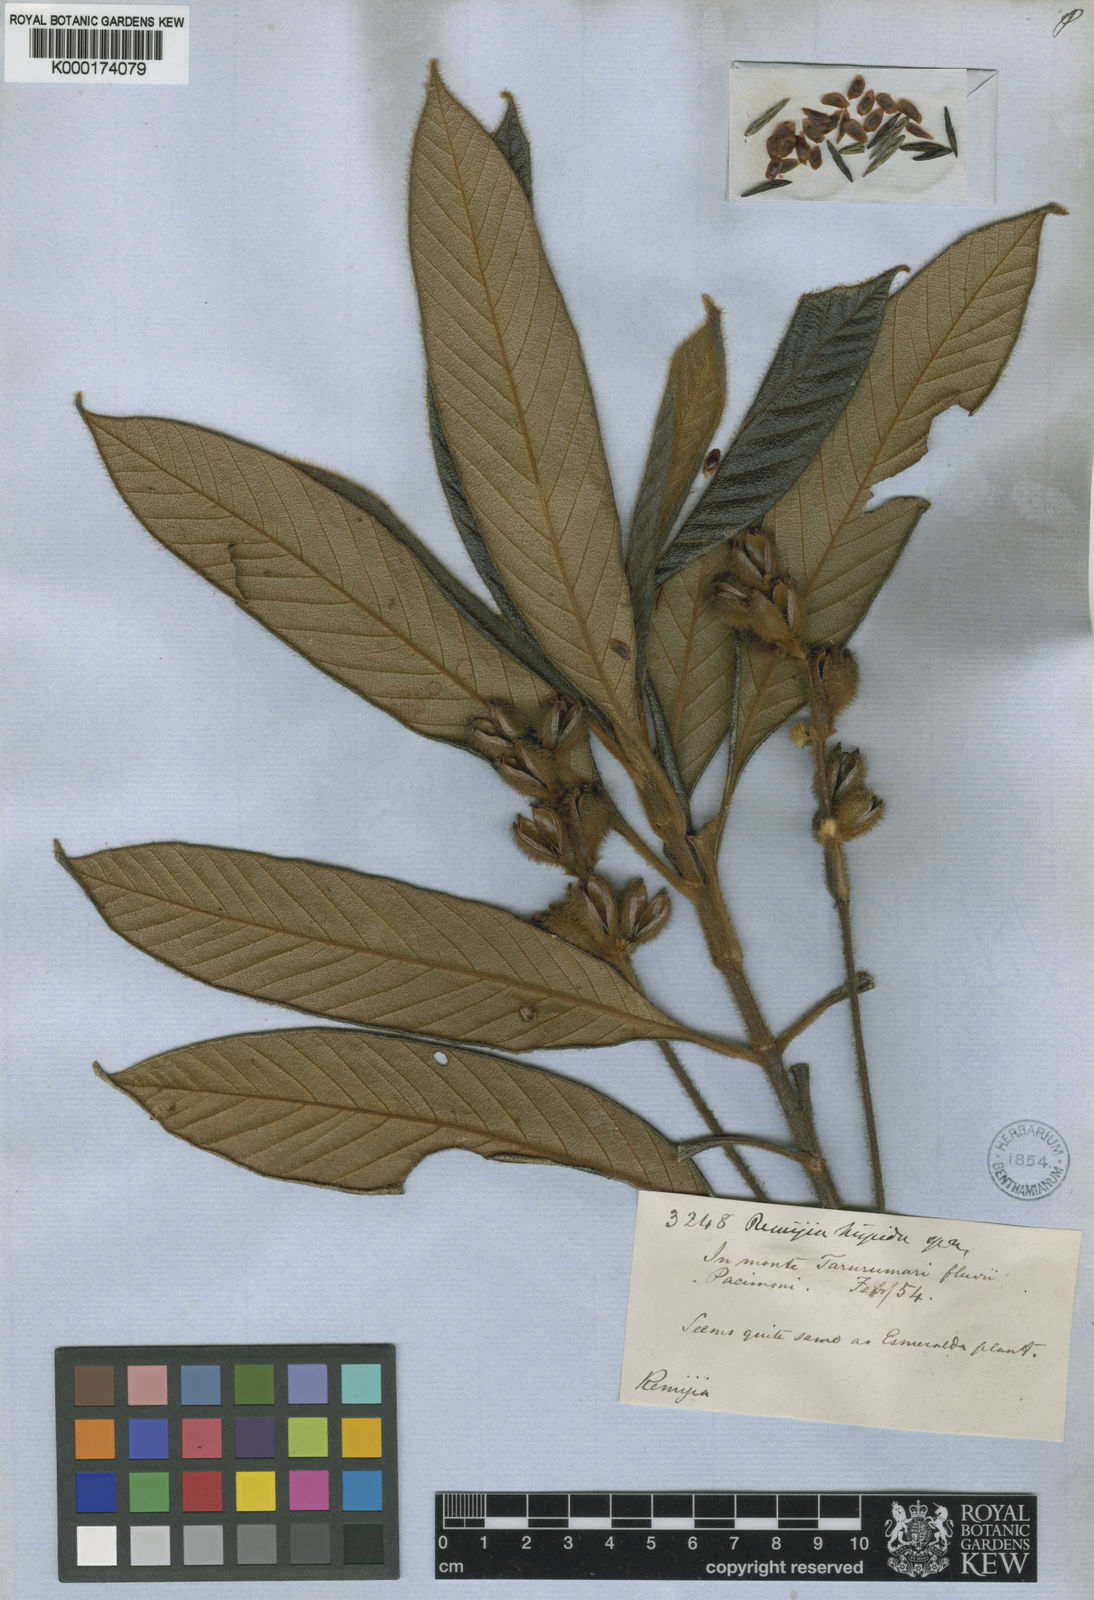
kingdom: Plantae
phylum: Tracheophyta
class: Magnoliopsida
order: Gentianales
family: Rubiaceae
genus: Remijia
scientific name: Remijia hispida
